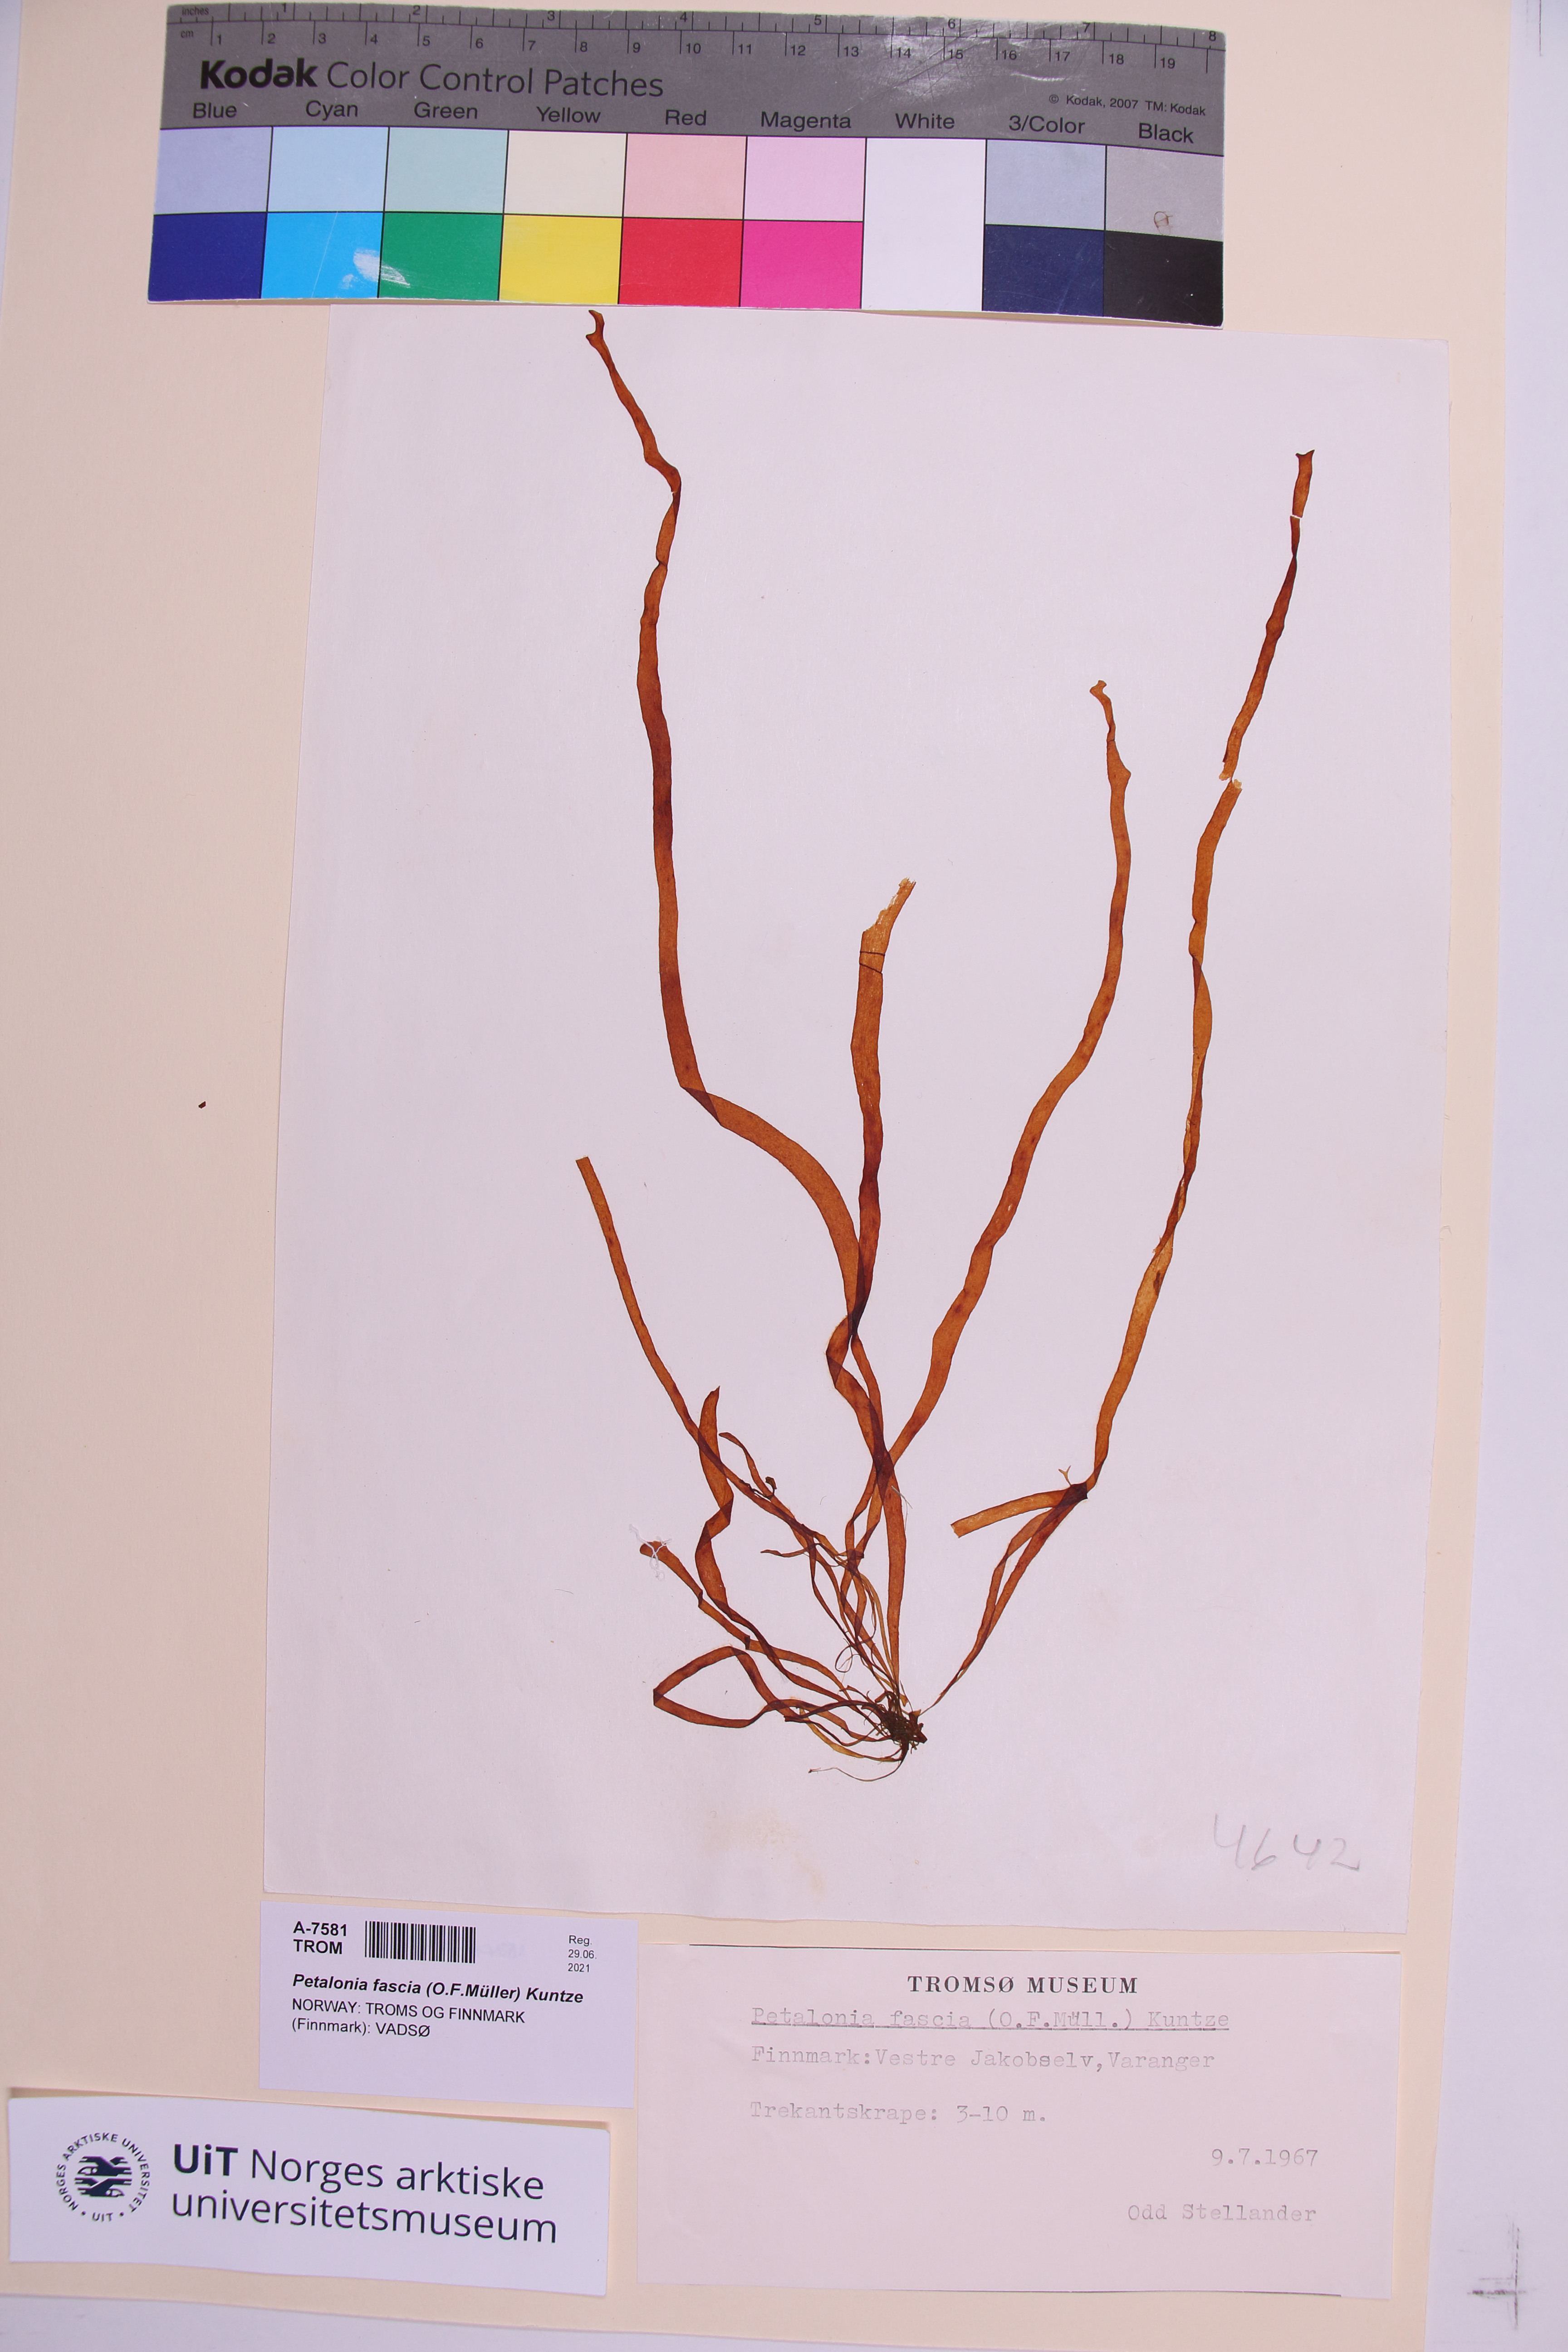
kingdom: Chromista
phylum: Ochrophyta
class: Phaeophyceae
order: Scytosiphonales
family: Scytosiphonaceae
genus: Petalonia
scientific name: Petalonia fascia
